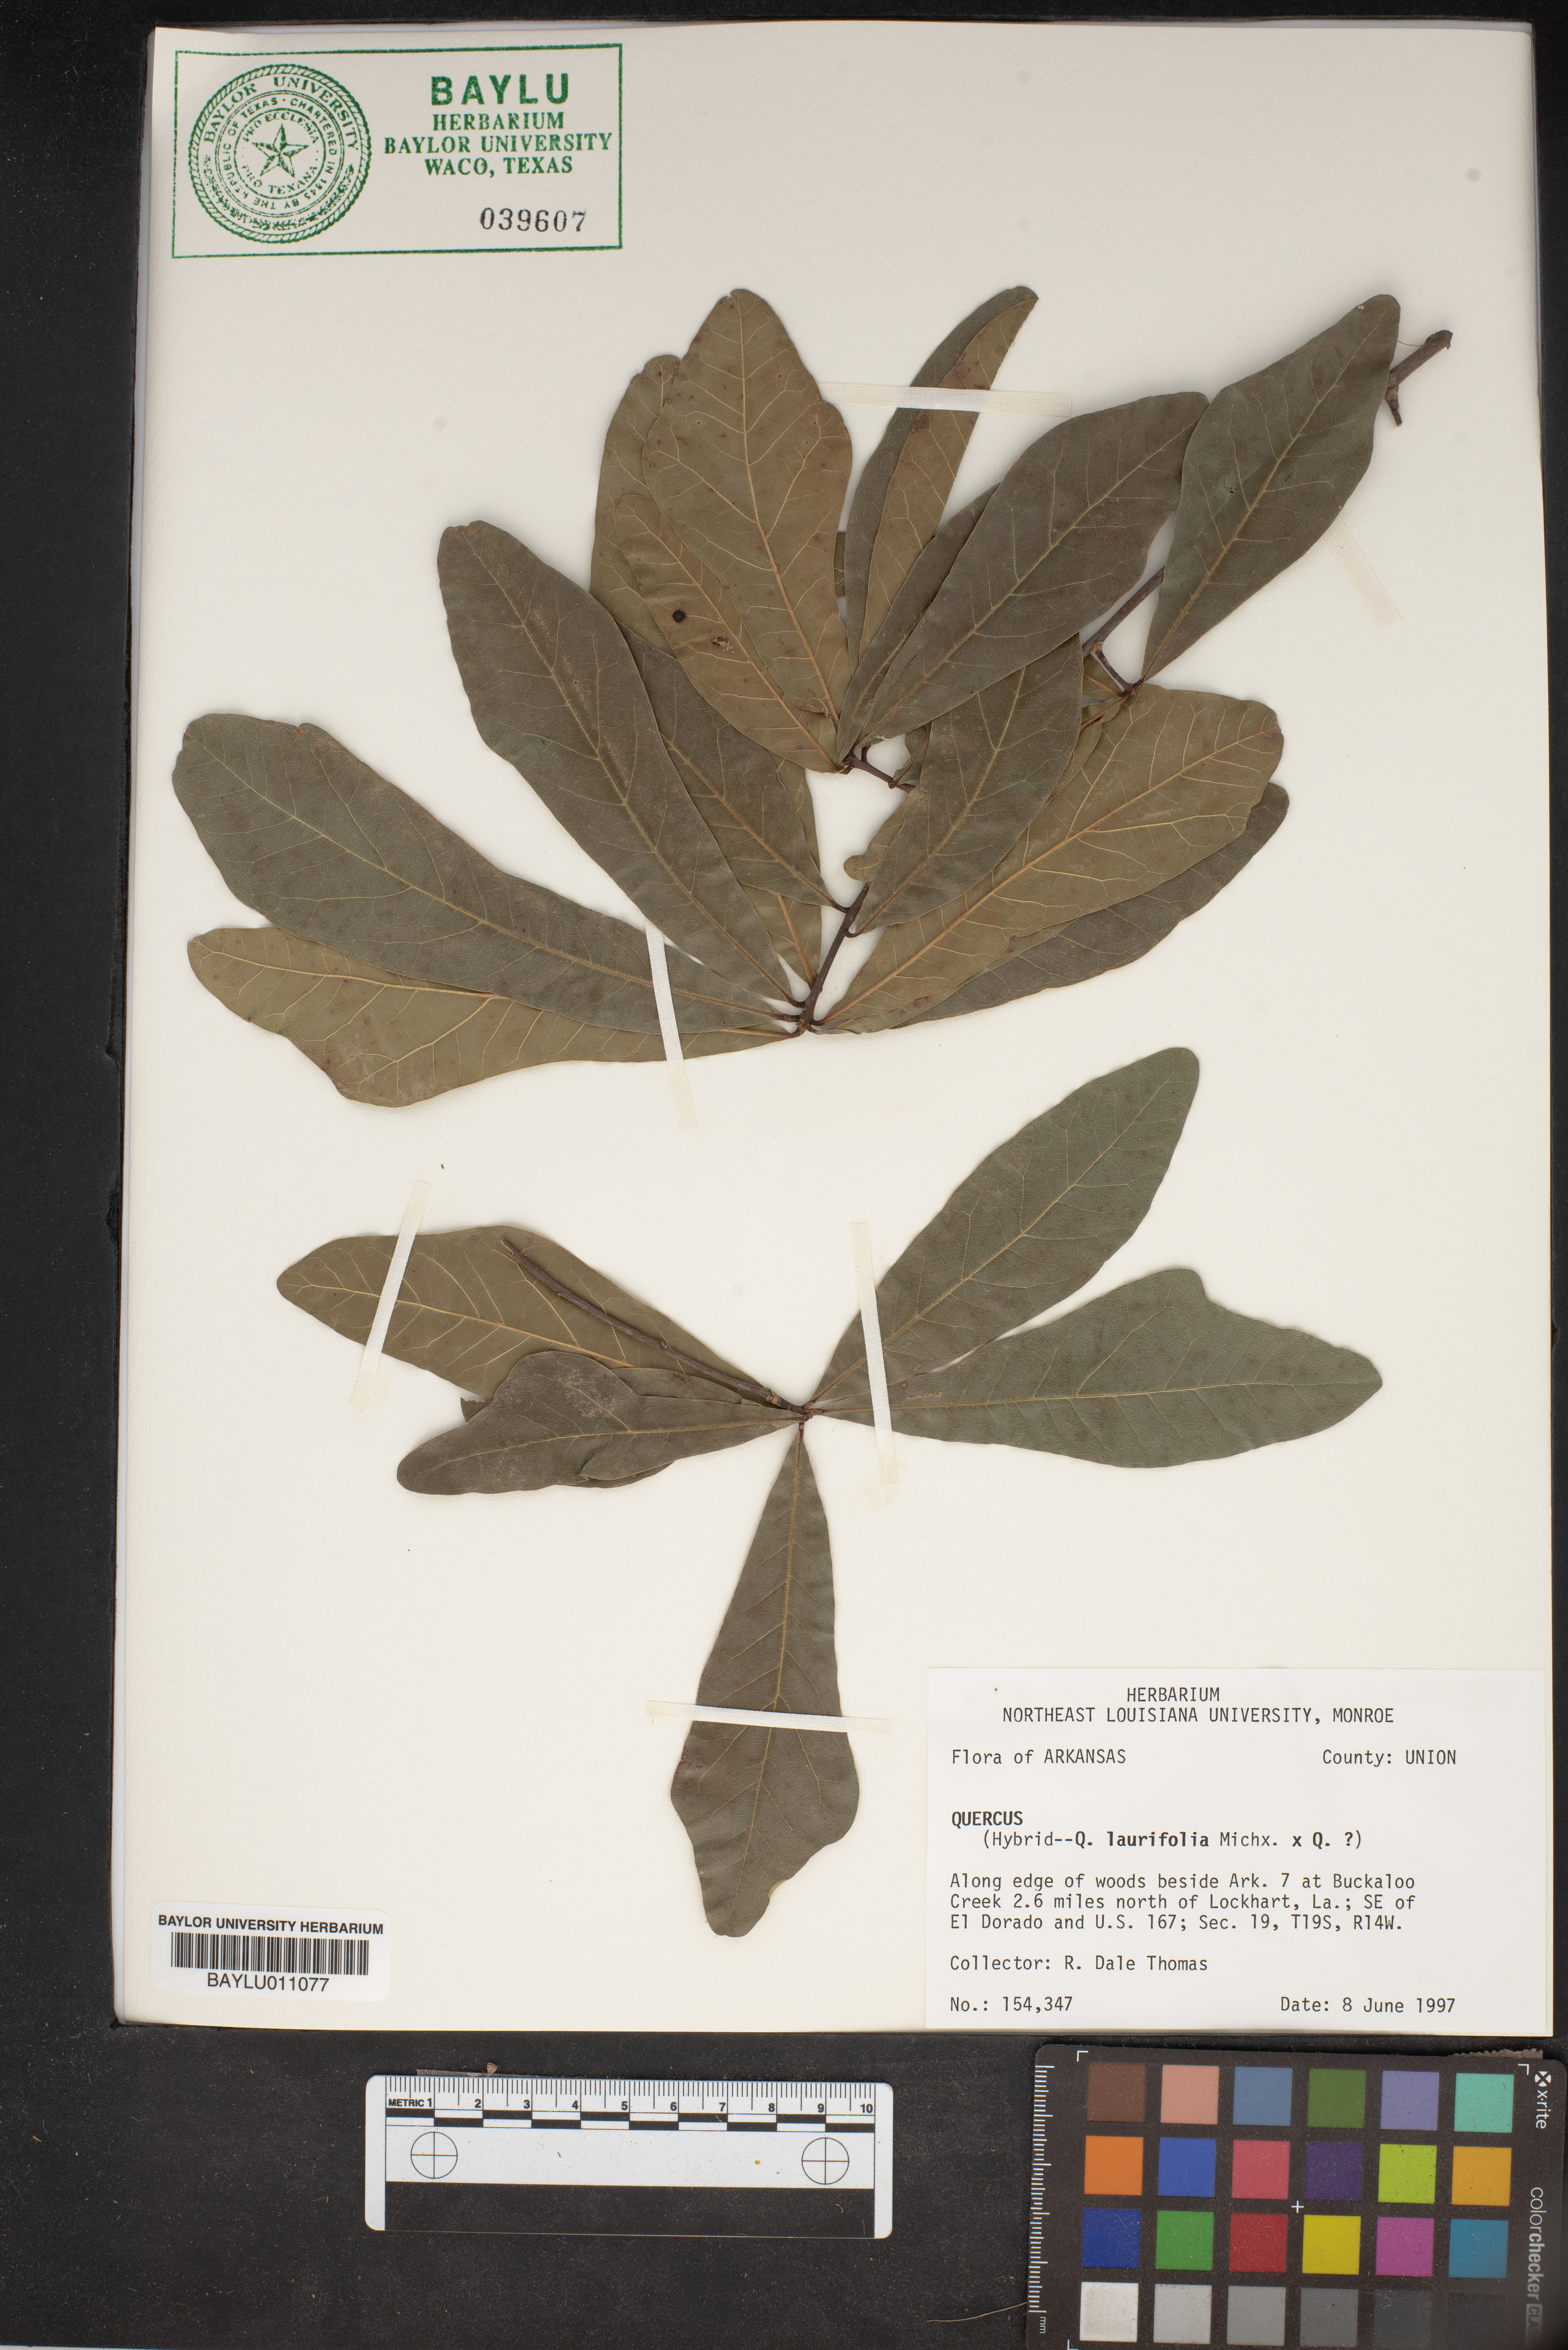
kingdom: Plantae
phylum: Tracheophyta
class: Magnoliopsida
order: Fagales
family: Fagaceae
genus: Quercus
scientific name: Quercus
